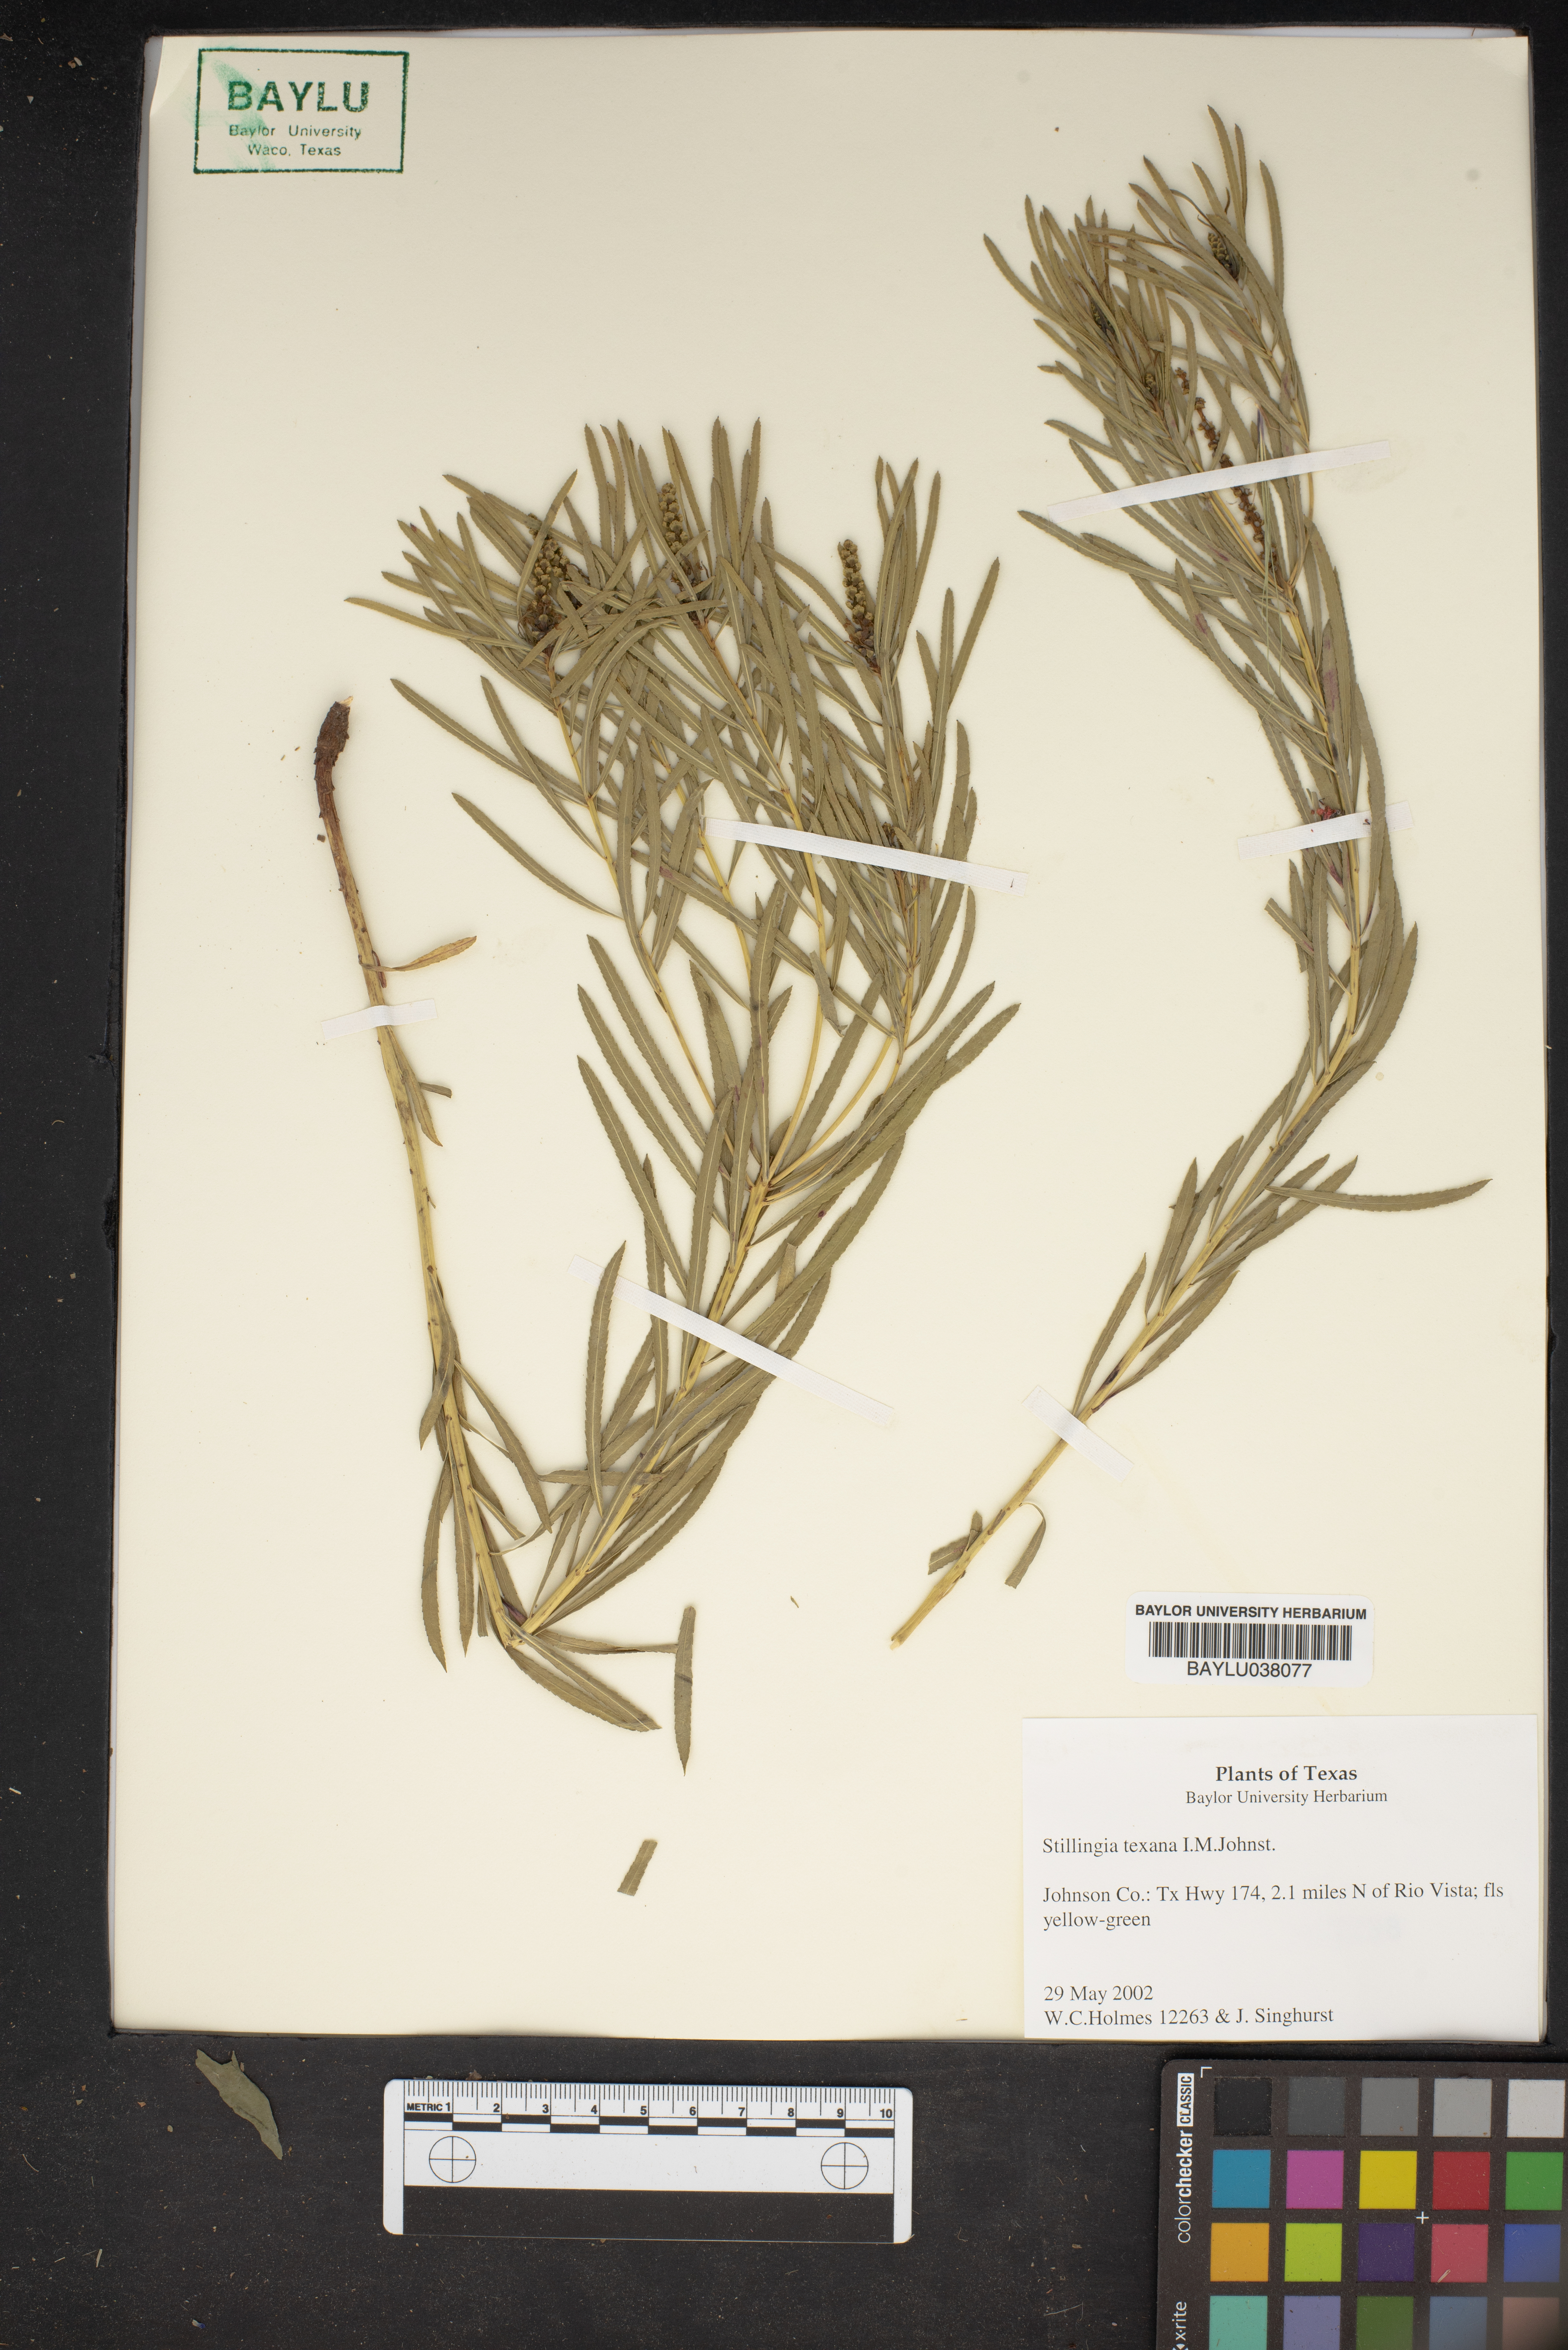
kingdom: Plantae
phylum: Tracheophyta
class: Magnoliopsida
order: Malpighiales
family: Euphorbiaceae
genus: Stillingia
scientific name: Stillingia texana
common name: Texas stillingia
